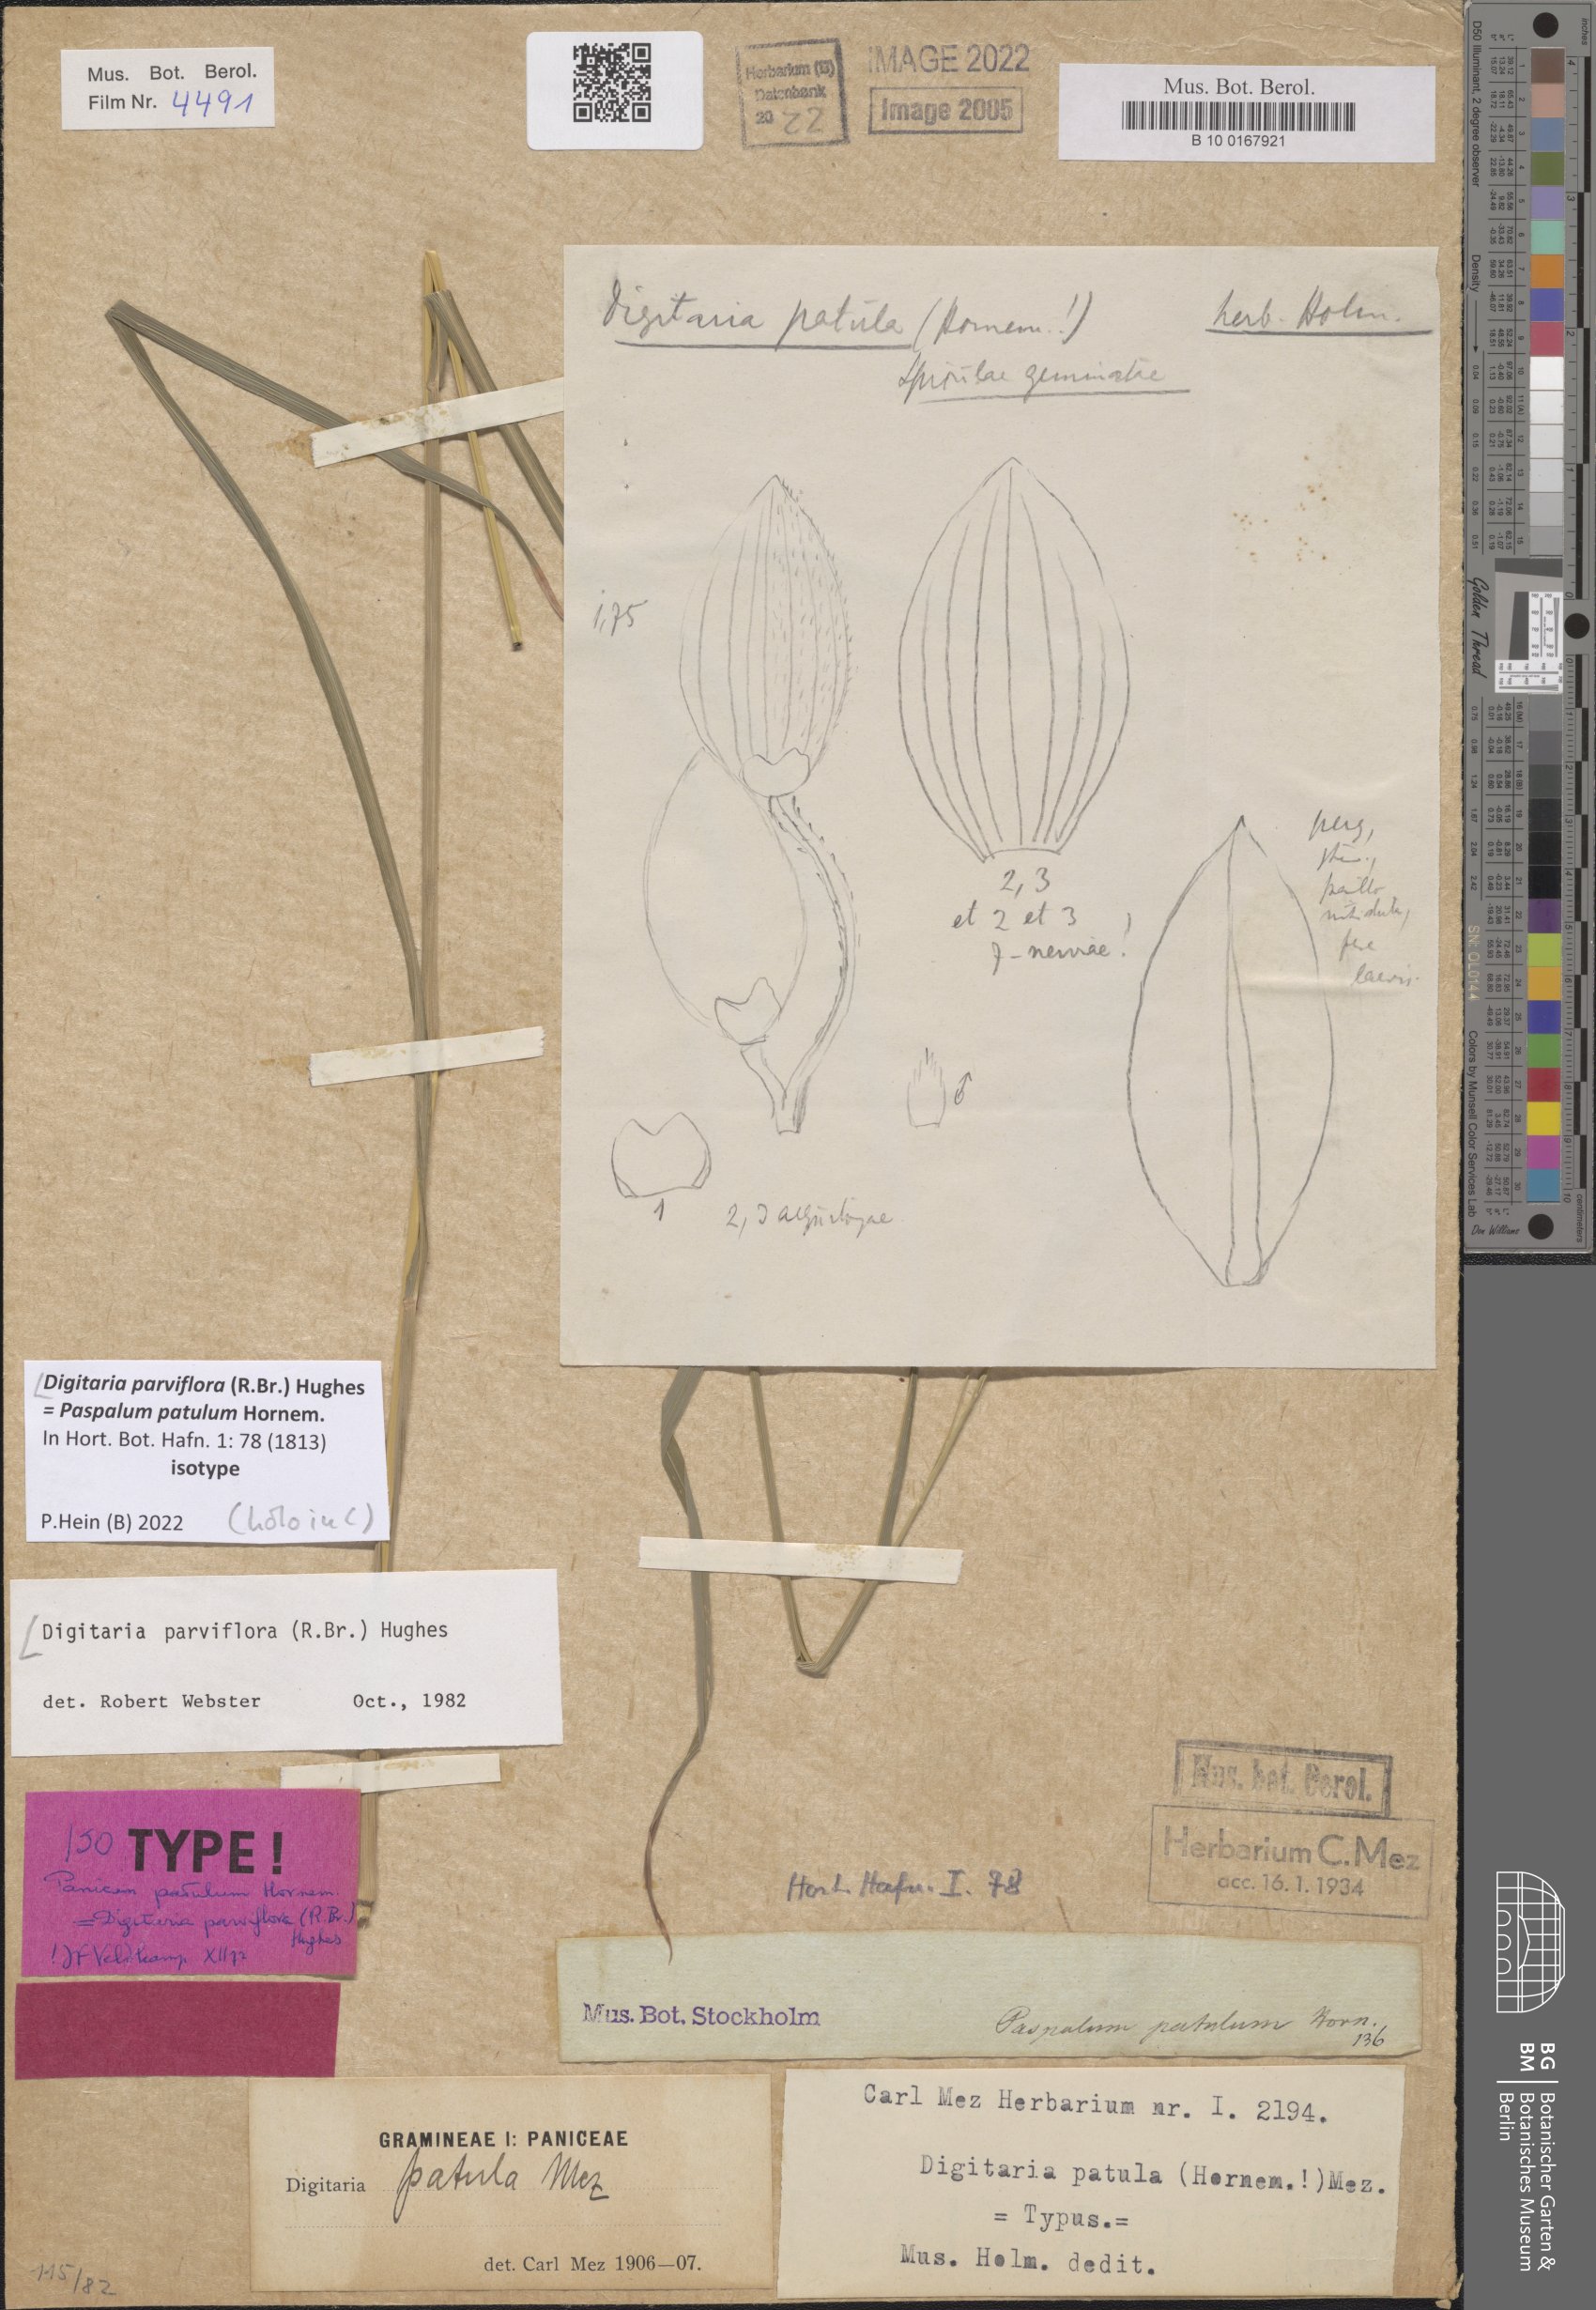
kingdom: Plantae
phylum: Tracheophyta
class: Liliopsida
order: Poales
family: Poaceae
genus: Digitaria
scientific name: Digitaria parviflora
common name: Small-flower finger grass
